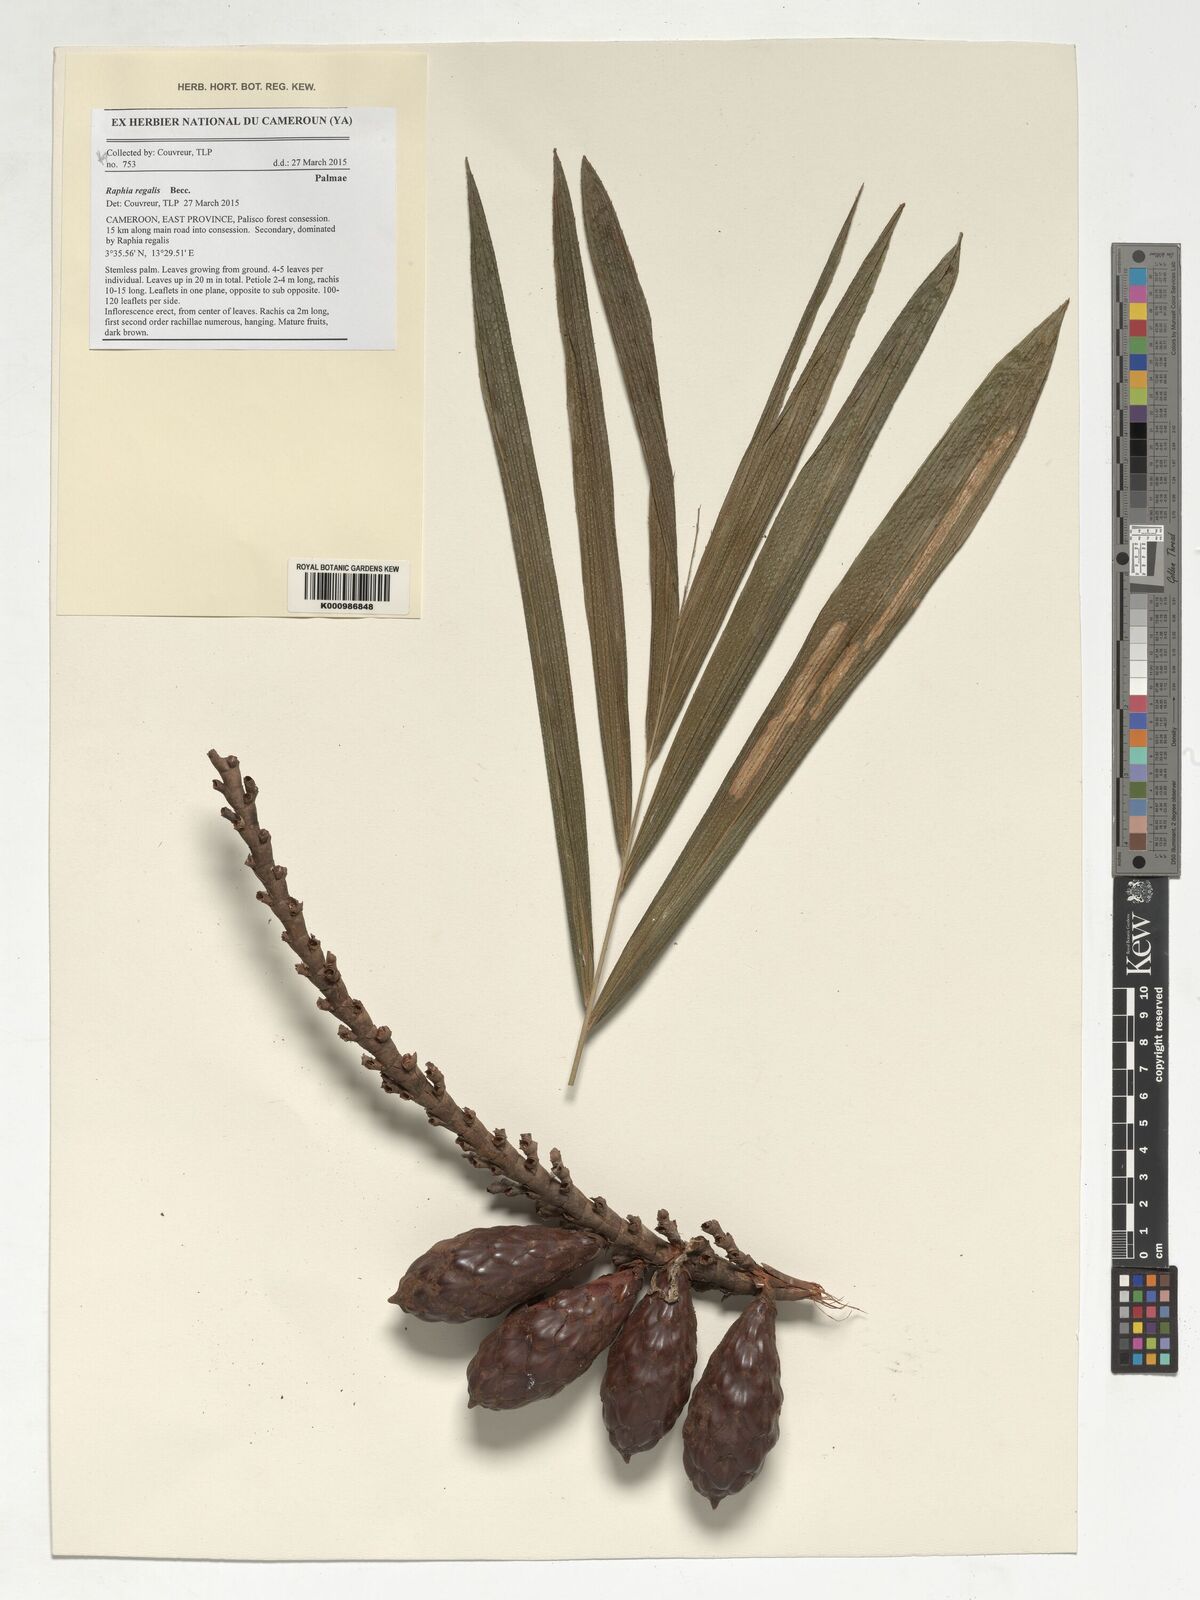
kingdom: Plantae
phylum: Tracheophyta
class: Liliopsida
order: Arecales
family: Arecaceae
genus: Raphia
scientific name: Raphia regalis
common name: Raphia palm
